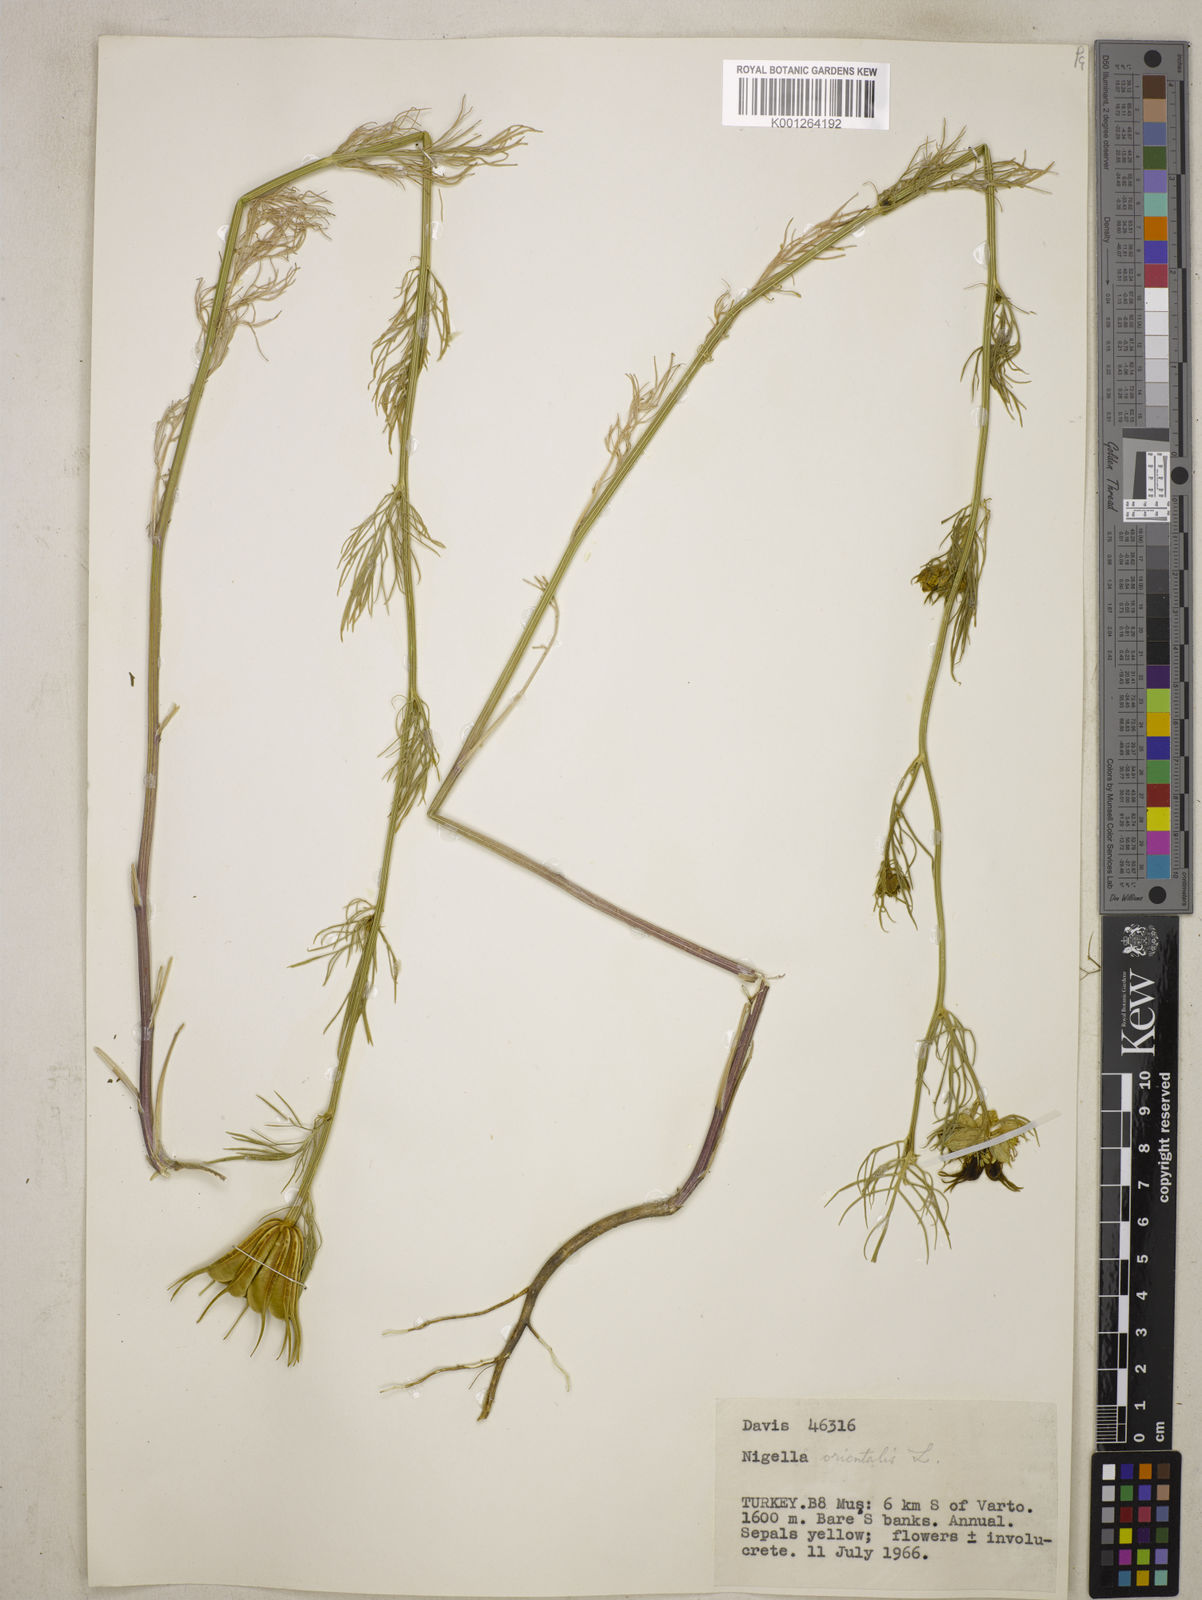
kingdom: Plantae
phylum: Tracheophyta
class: Magnoliopsida
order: Ranunculales
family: Ranunculaceae
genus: Nigella
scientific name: Nigella orientalis
